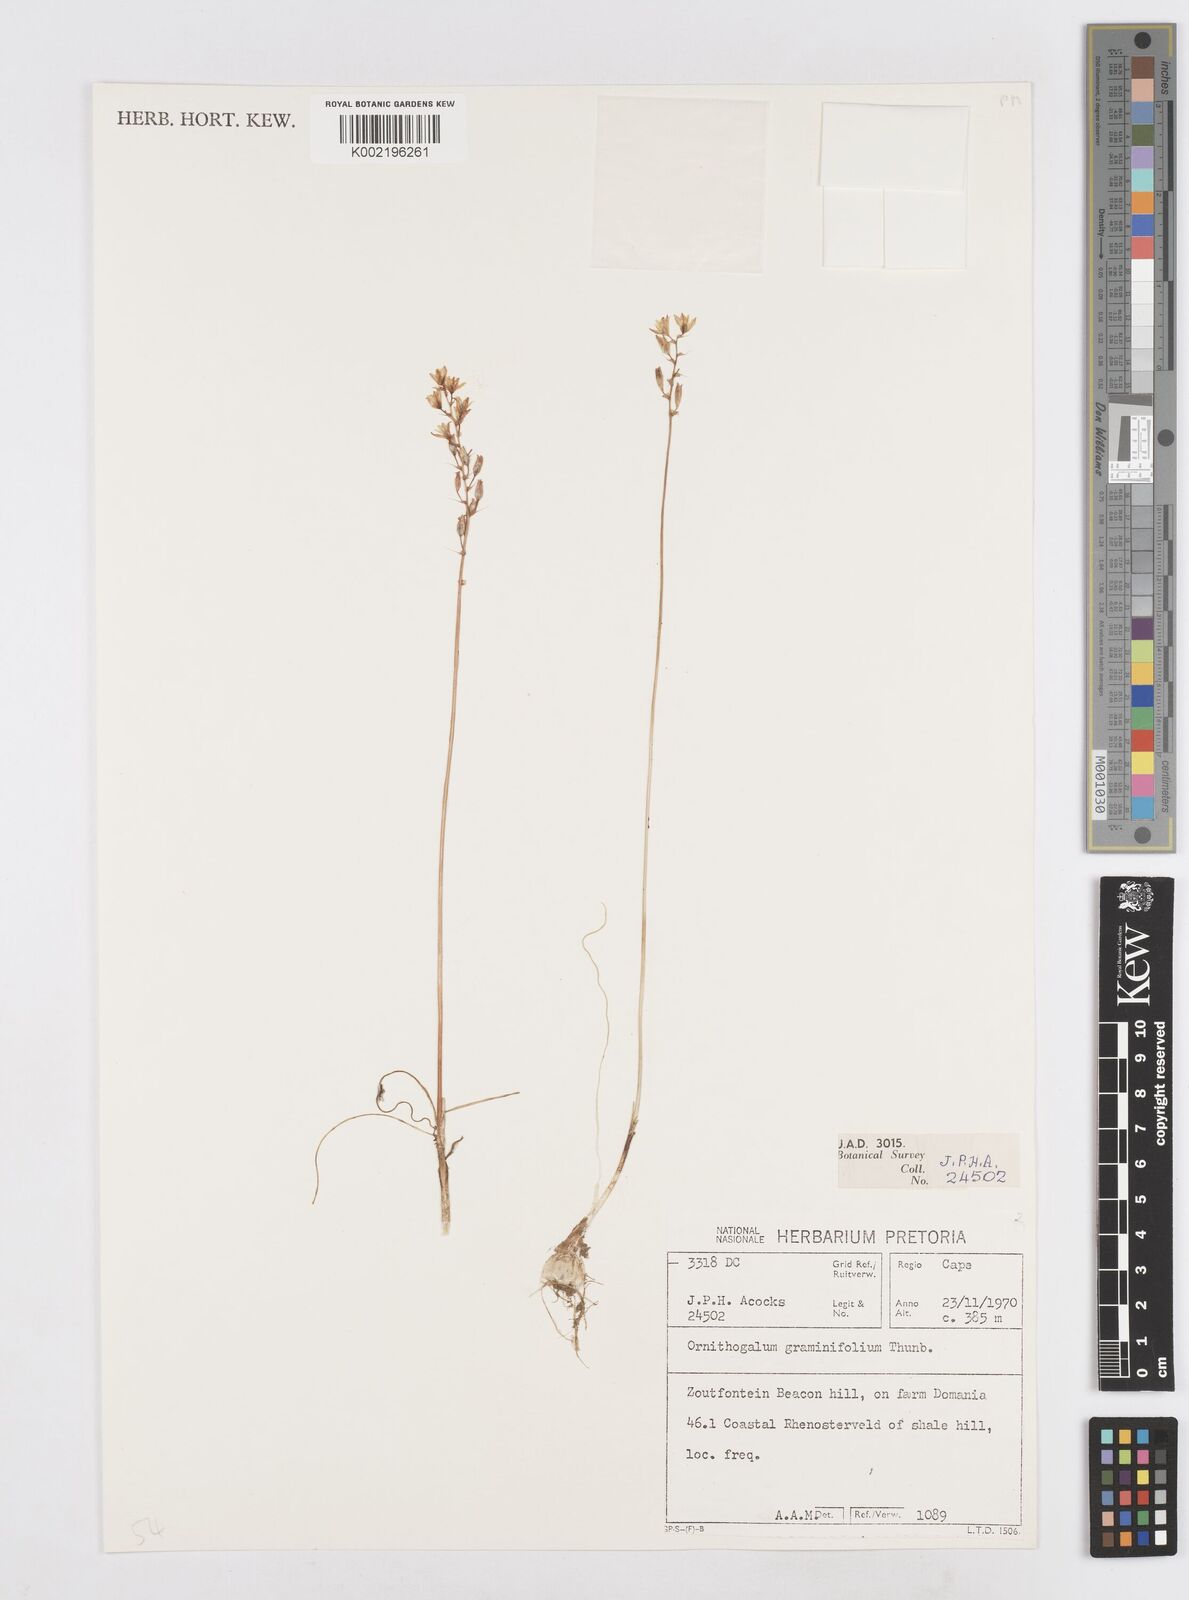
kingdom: Plantae
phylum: Tracheophyta
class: Liliopsida
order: Asparagales
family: Asparagaceae
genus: Ornithogalum
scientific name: Ornithogalum graminifolium
